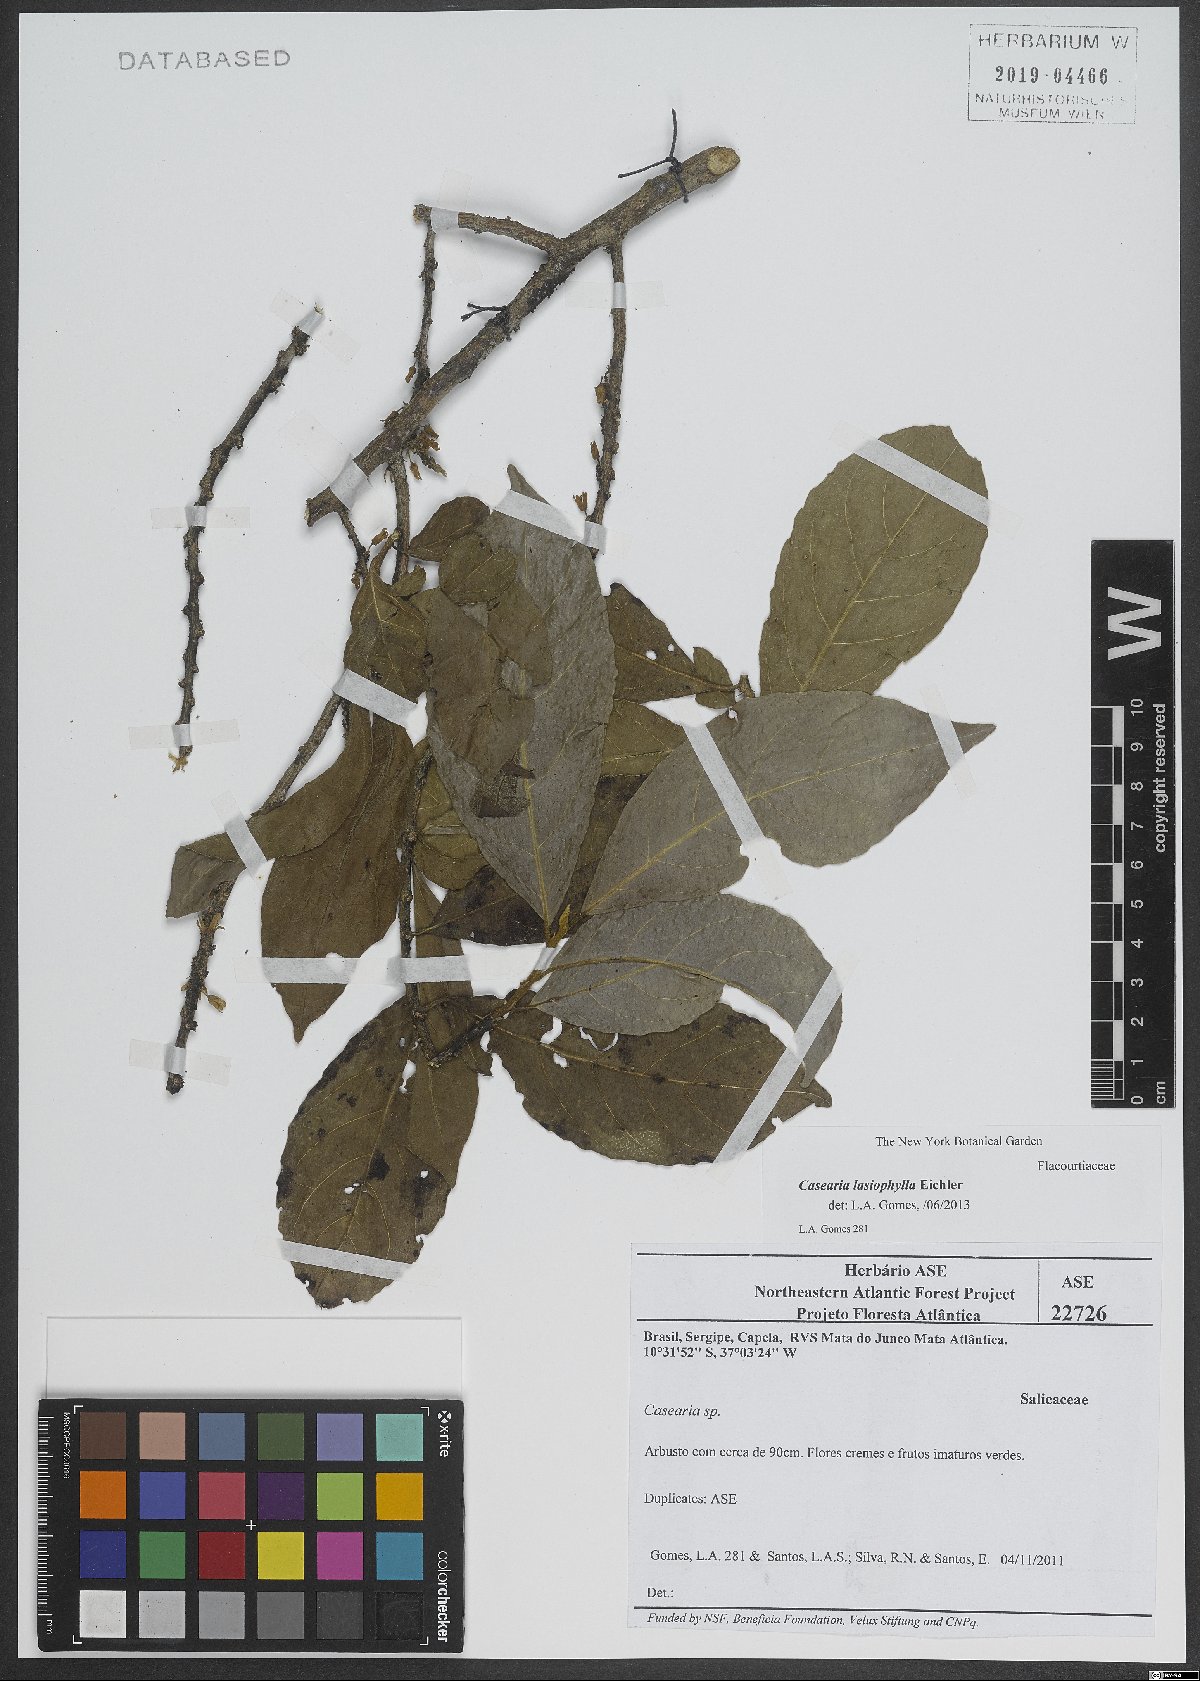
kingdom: Plantae
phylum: Tracheophyta
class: Magnoliopsida
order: Malpighiales
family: Salicaceae
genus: Casearia
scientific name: Casearia lasiophylla
